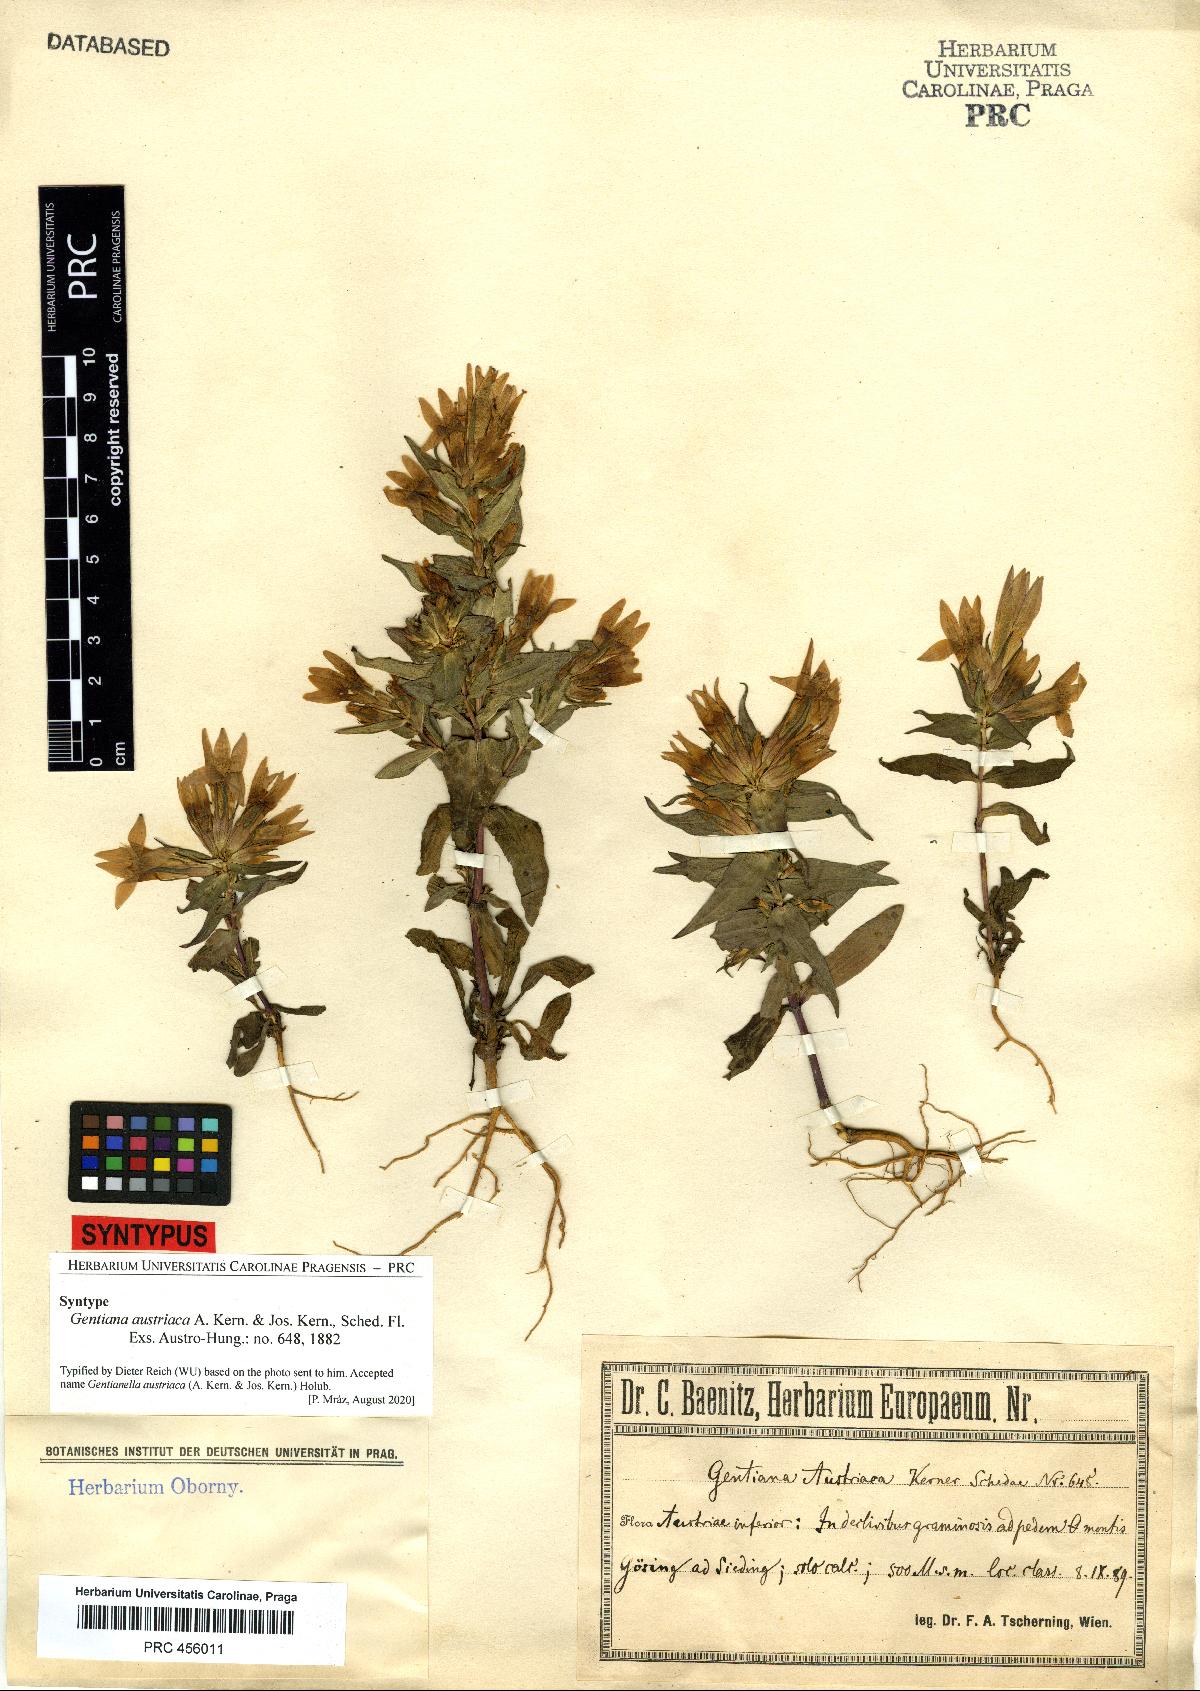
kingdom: Plantae
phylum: Tracheophyta
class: Magnoliopsida
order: Gentianales
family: Gentianaceae
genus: Gentianella
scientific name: Gentianella austriaca
